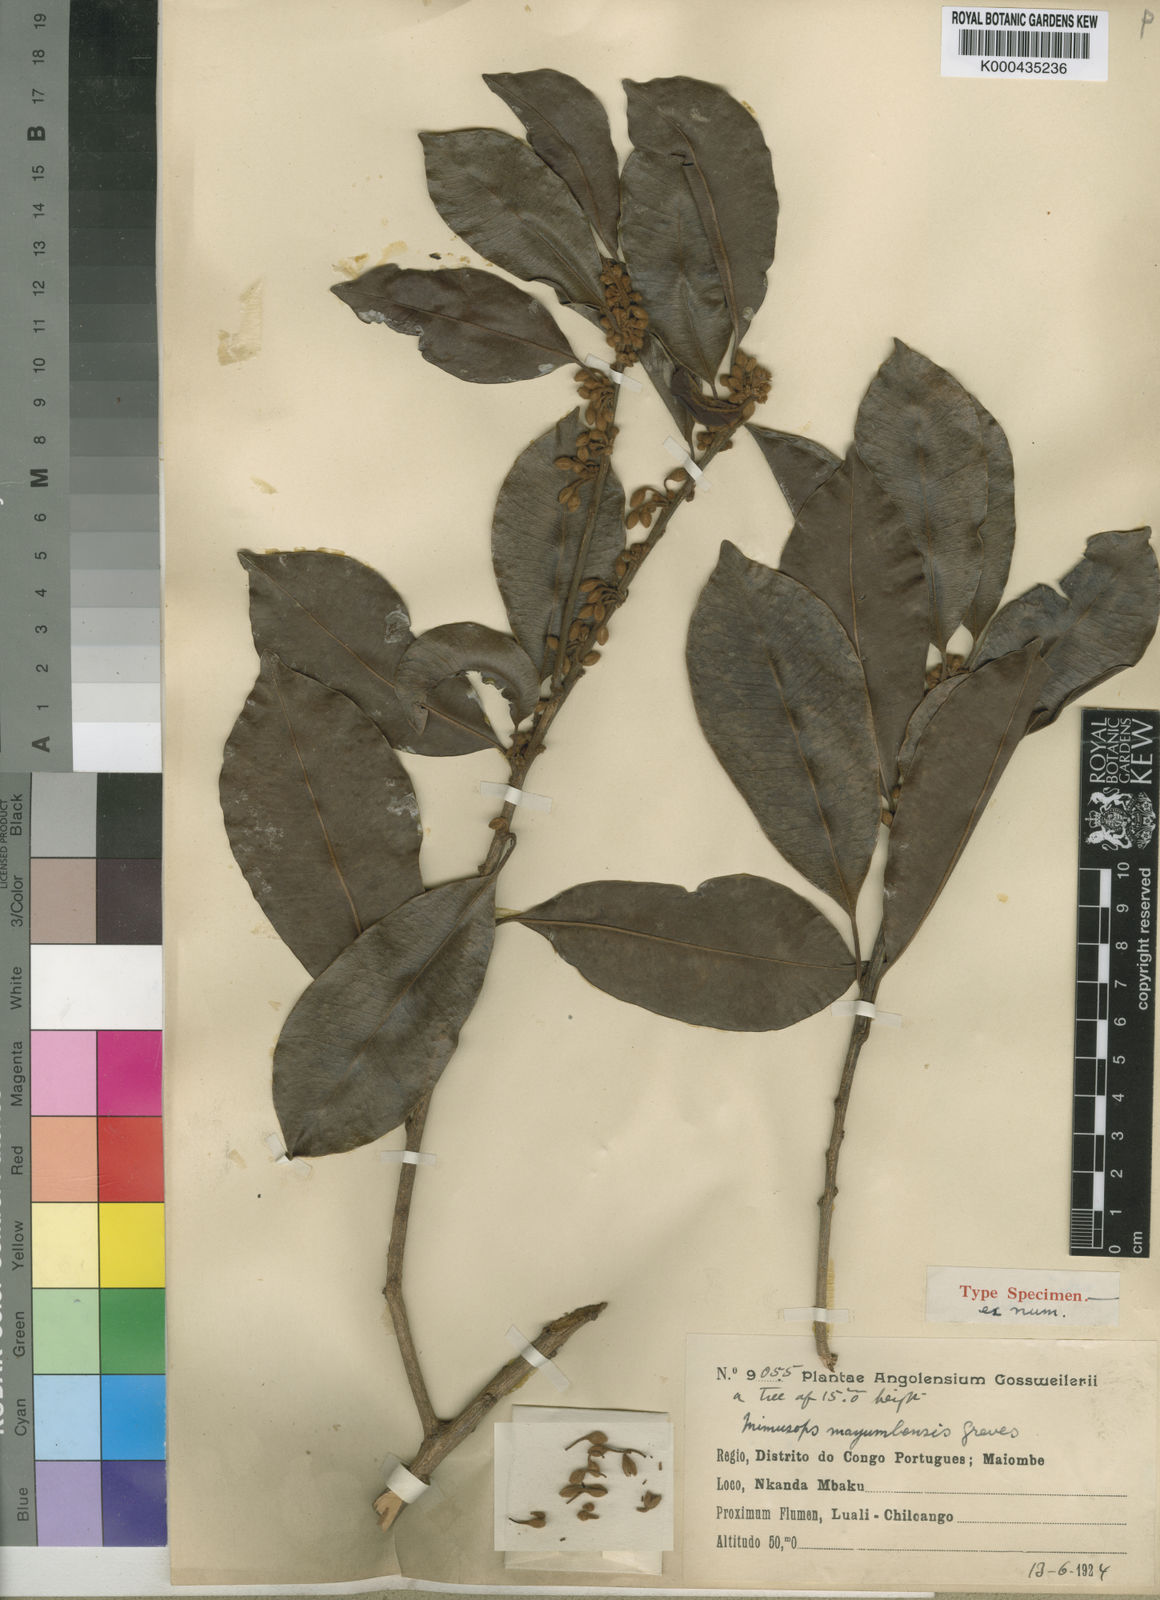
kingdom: Plantae
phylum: Tracheophyta
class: Magnoliopsida
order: Ericales
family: Sapotaceae
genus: Mimusops
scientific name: Mimusops mayumbensis
